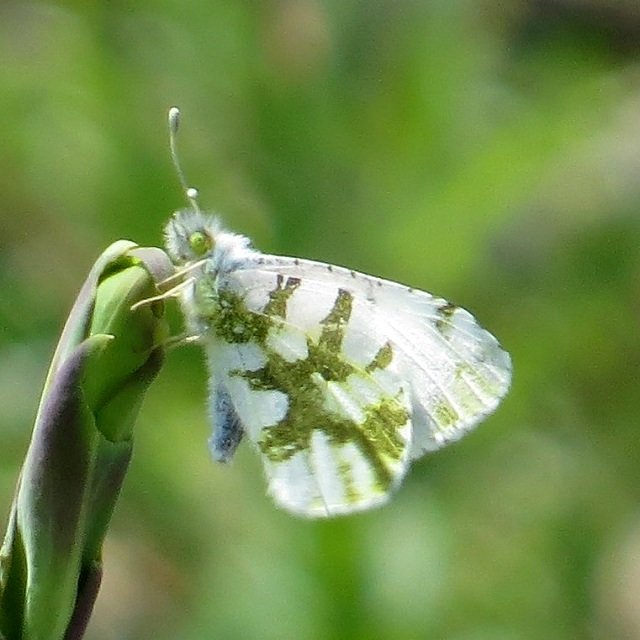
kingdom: Animalia
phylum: Arthropoda
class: Insecta
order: Lepidoptera
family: Pieridae
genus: Euchloe
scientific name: Euchloe olympia
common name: Olympia Marble
